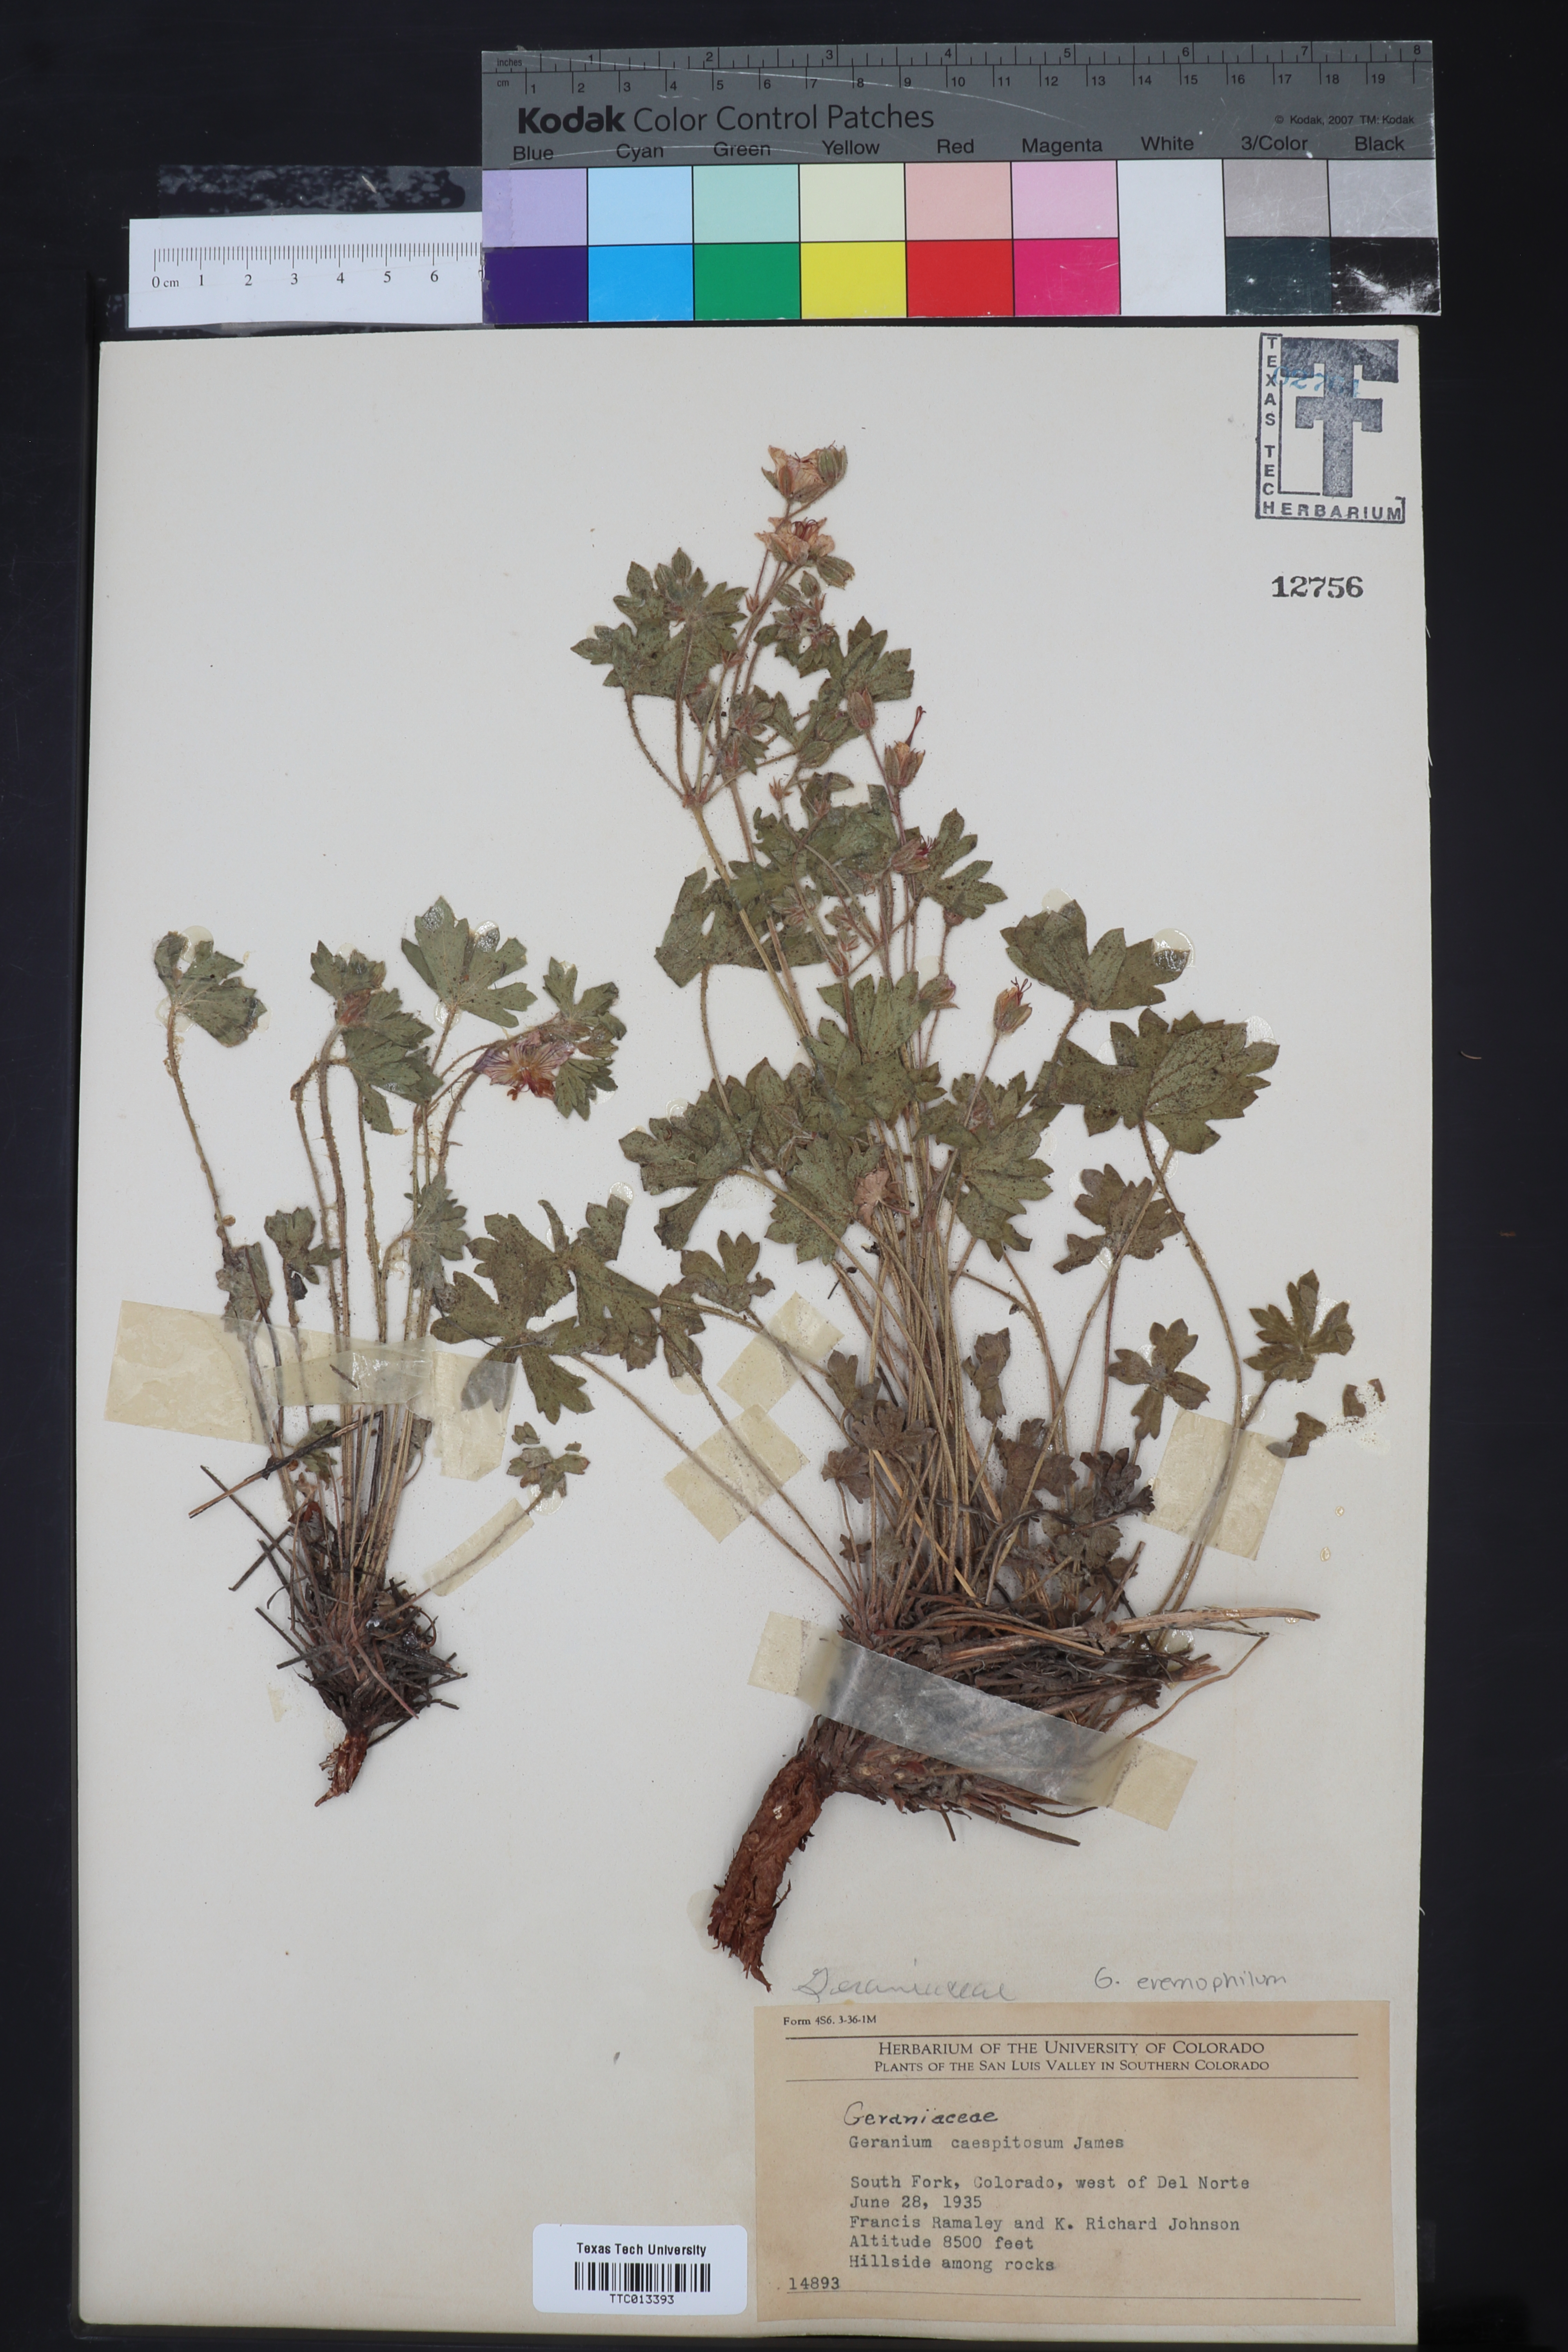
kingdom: Plantae
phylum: Tracheophyta
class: Magnoliopsida
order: Geraniales
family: Geraniaceae
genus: Geranium
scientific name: Geranium caespitosum
